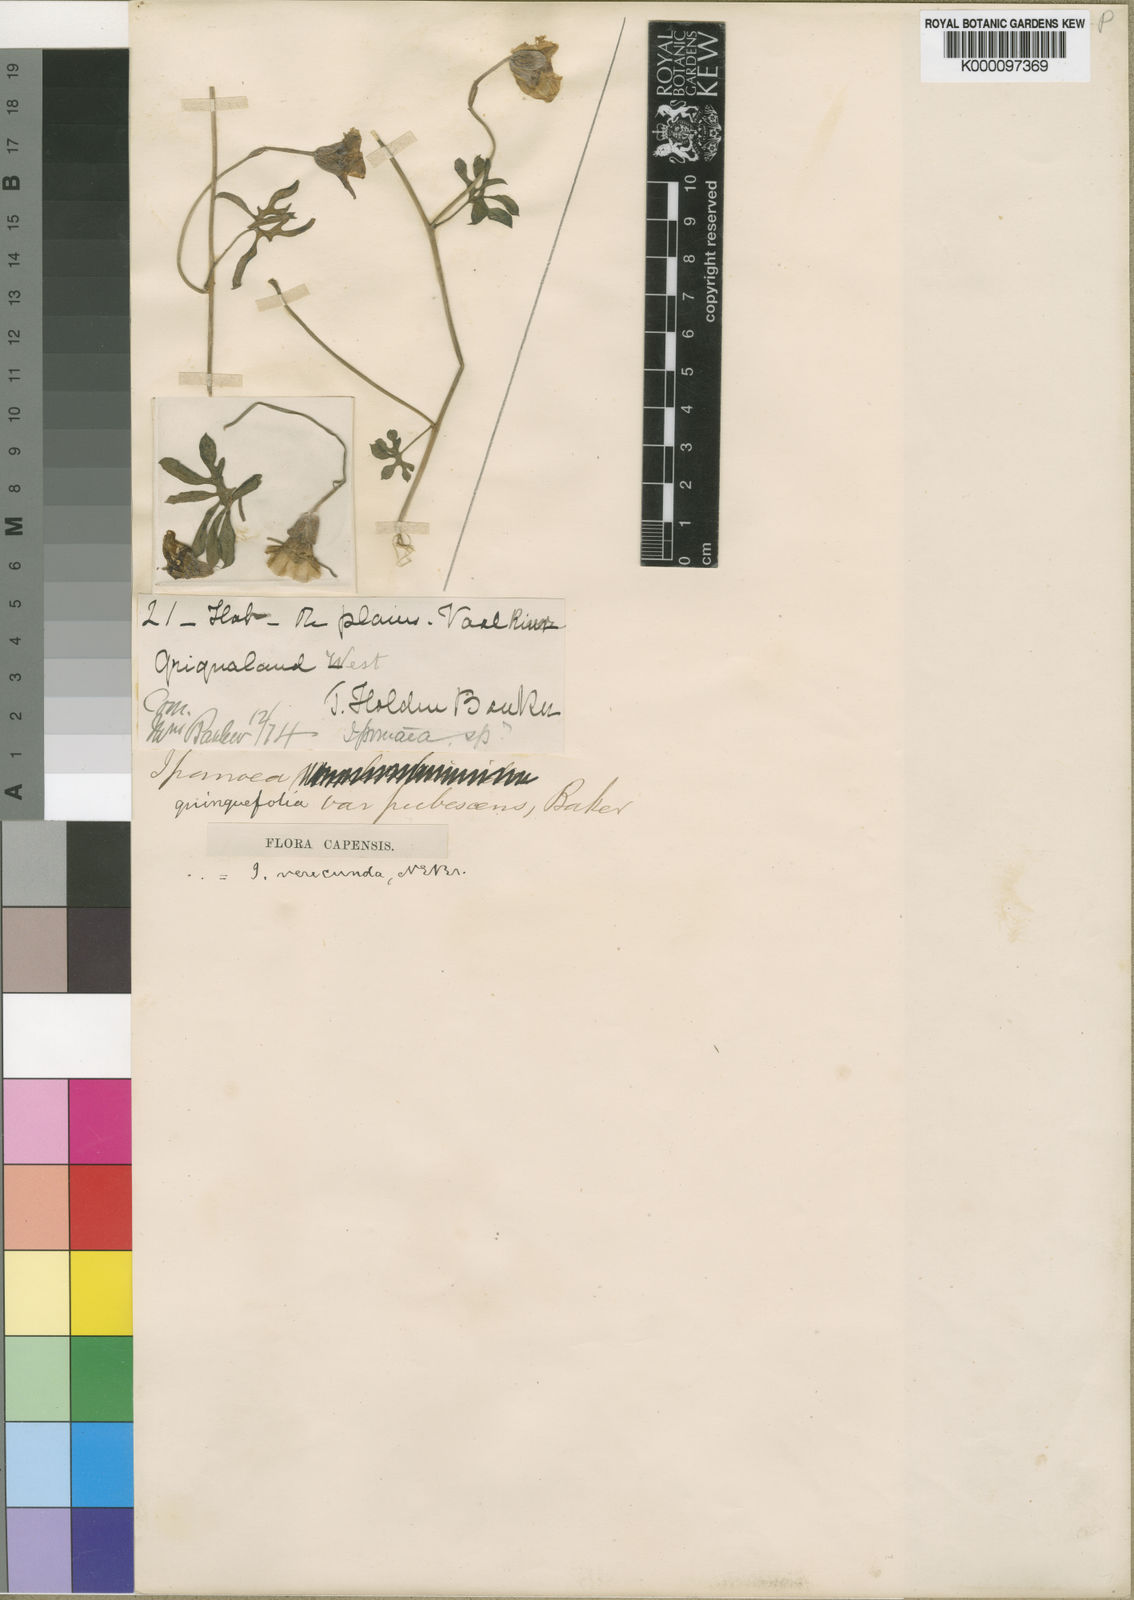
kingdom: Plantae
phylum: Tracheophyta
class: Magnoliopsida
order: Solanales
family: Convolvulaceae
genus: Merremia
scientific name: Merremia verecunda
